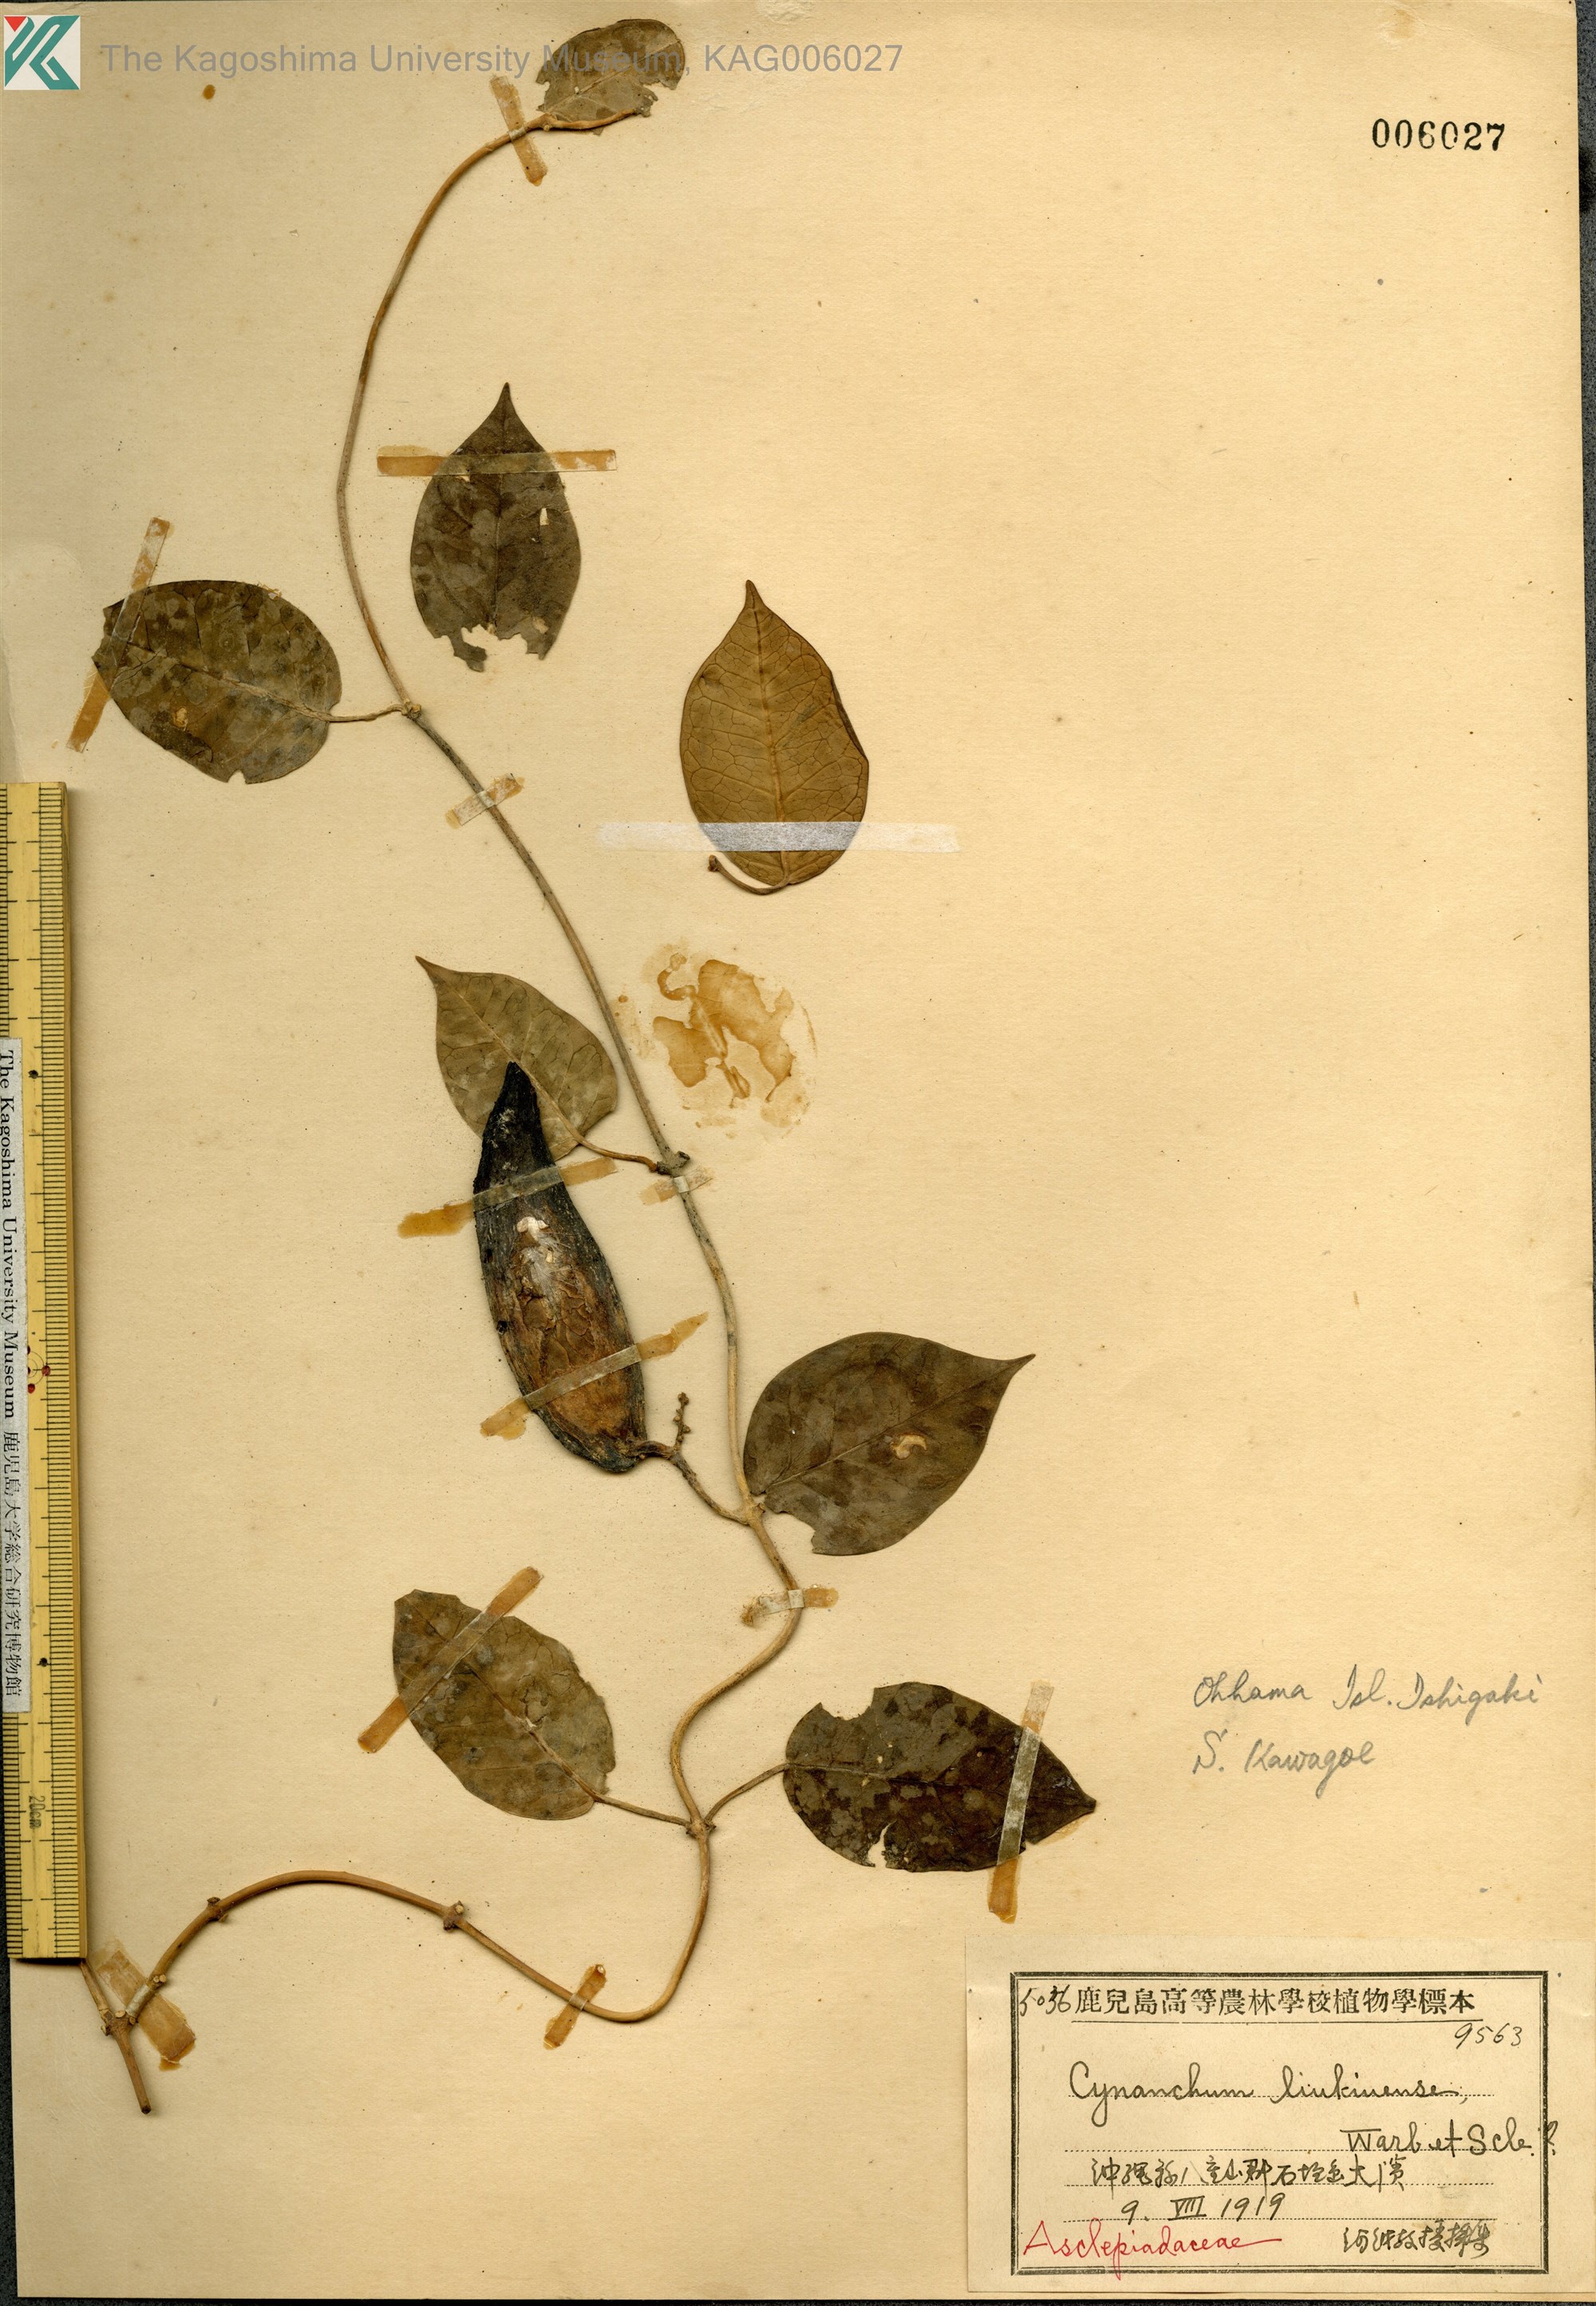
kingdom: Plantae
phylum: Tracheophyta
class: Magnoliopsida
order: Gentianales
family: Apocynaceae
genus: Cynanchum
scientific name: Cynanchum liukiuense
